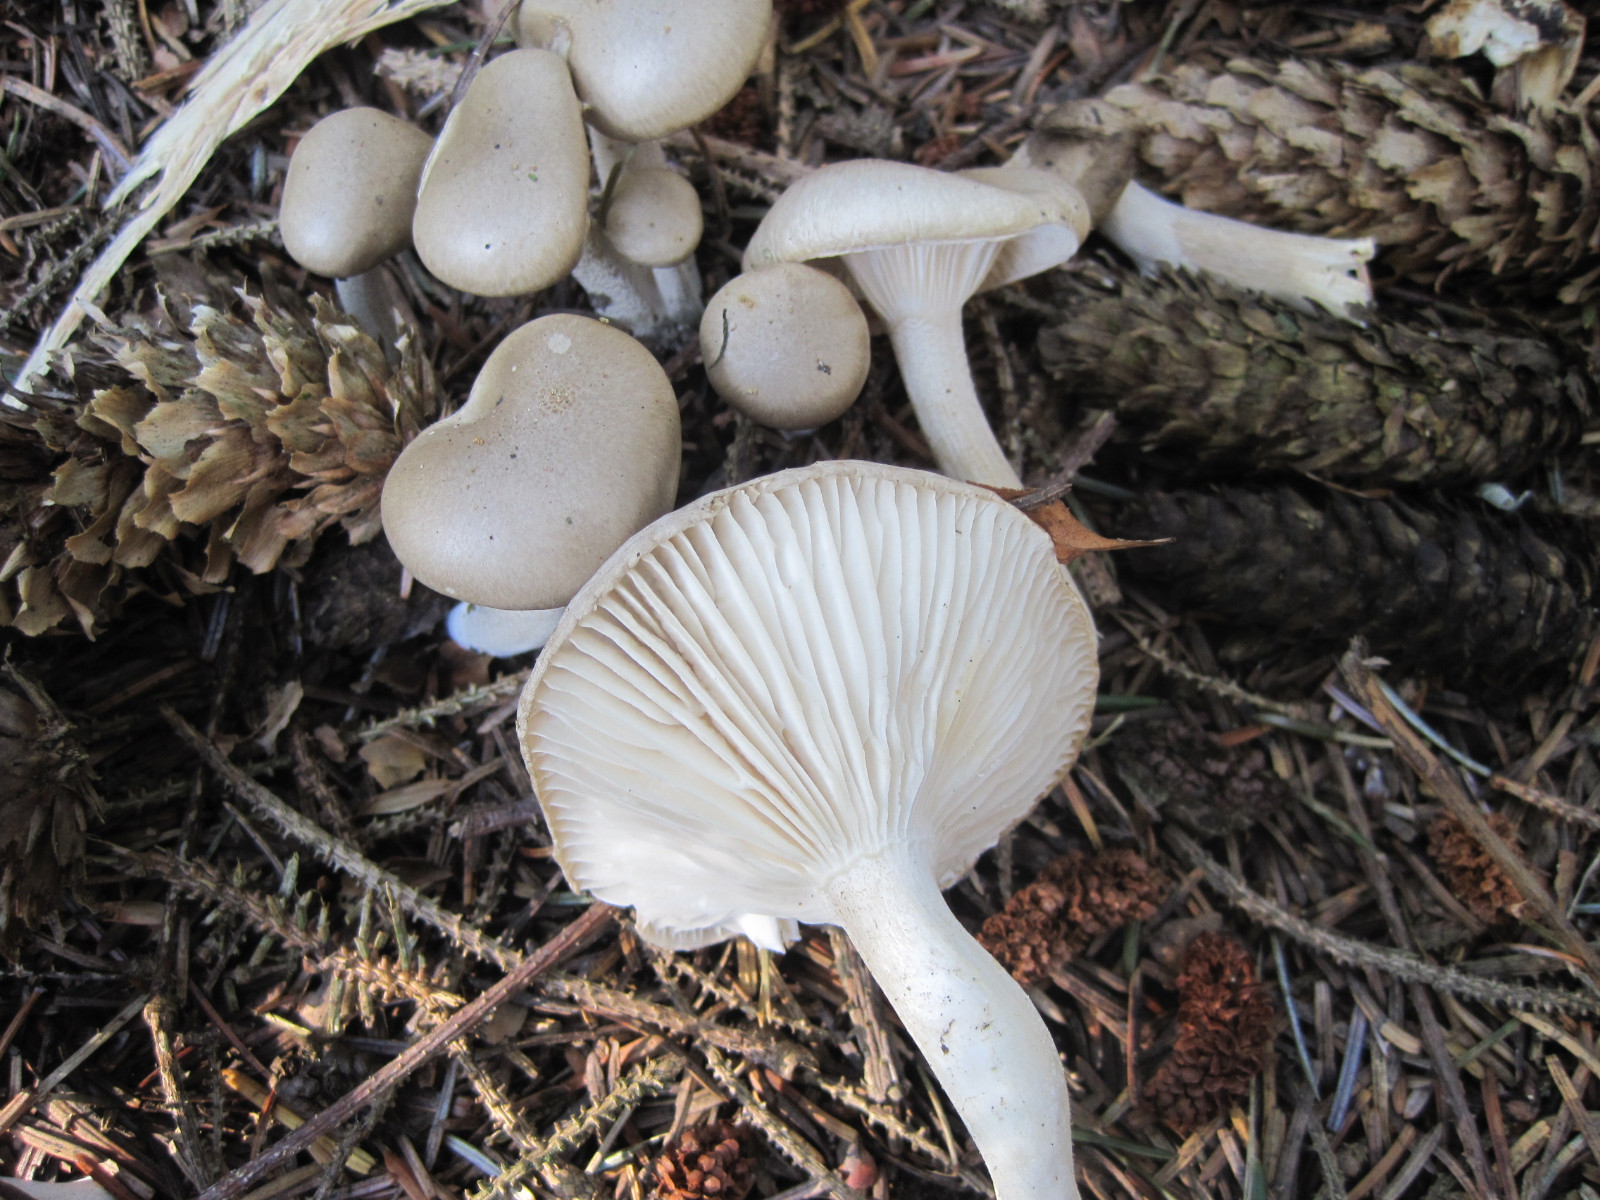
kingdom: Fungi
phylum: Basidiomycota
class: Agaricomycetes
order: Agaricales
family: Hygrophoraceae
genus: Hygrophorus
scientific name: Hygrophorus agathosmus
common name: vellugtende sneglehat
